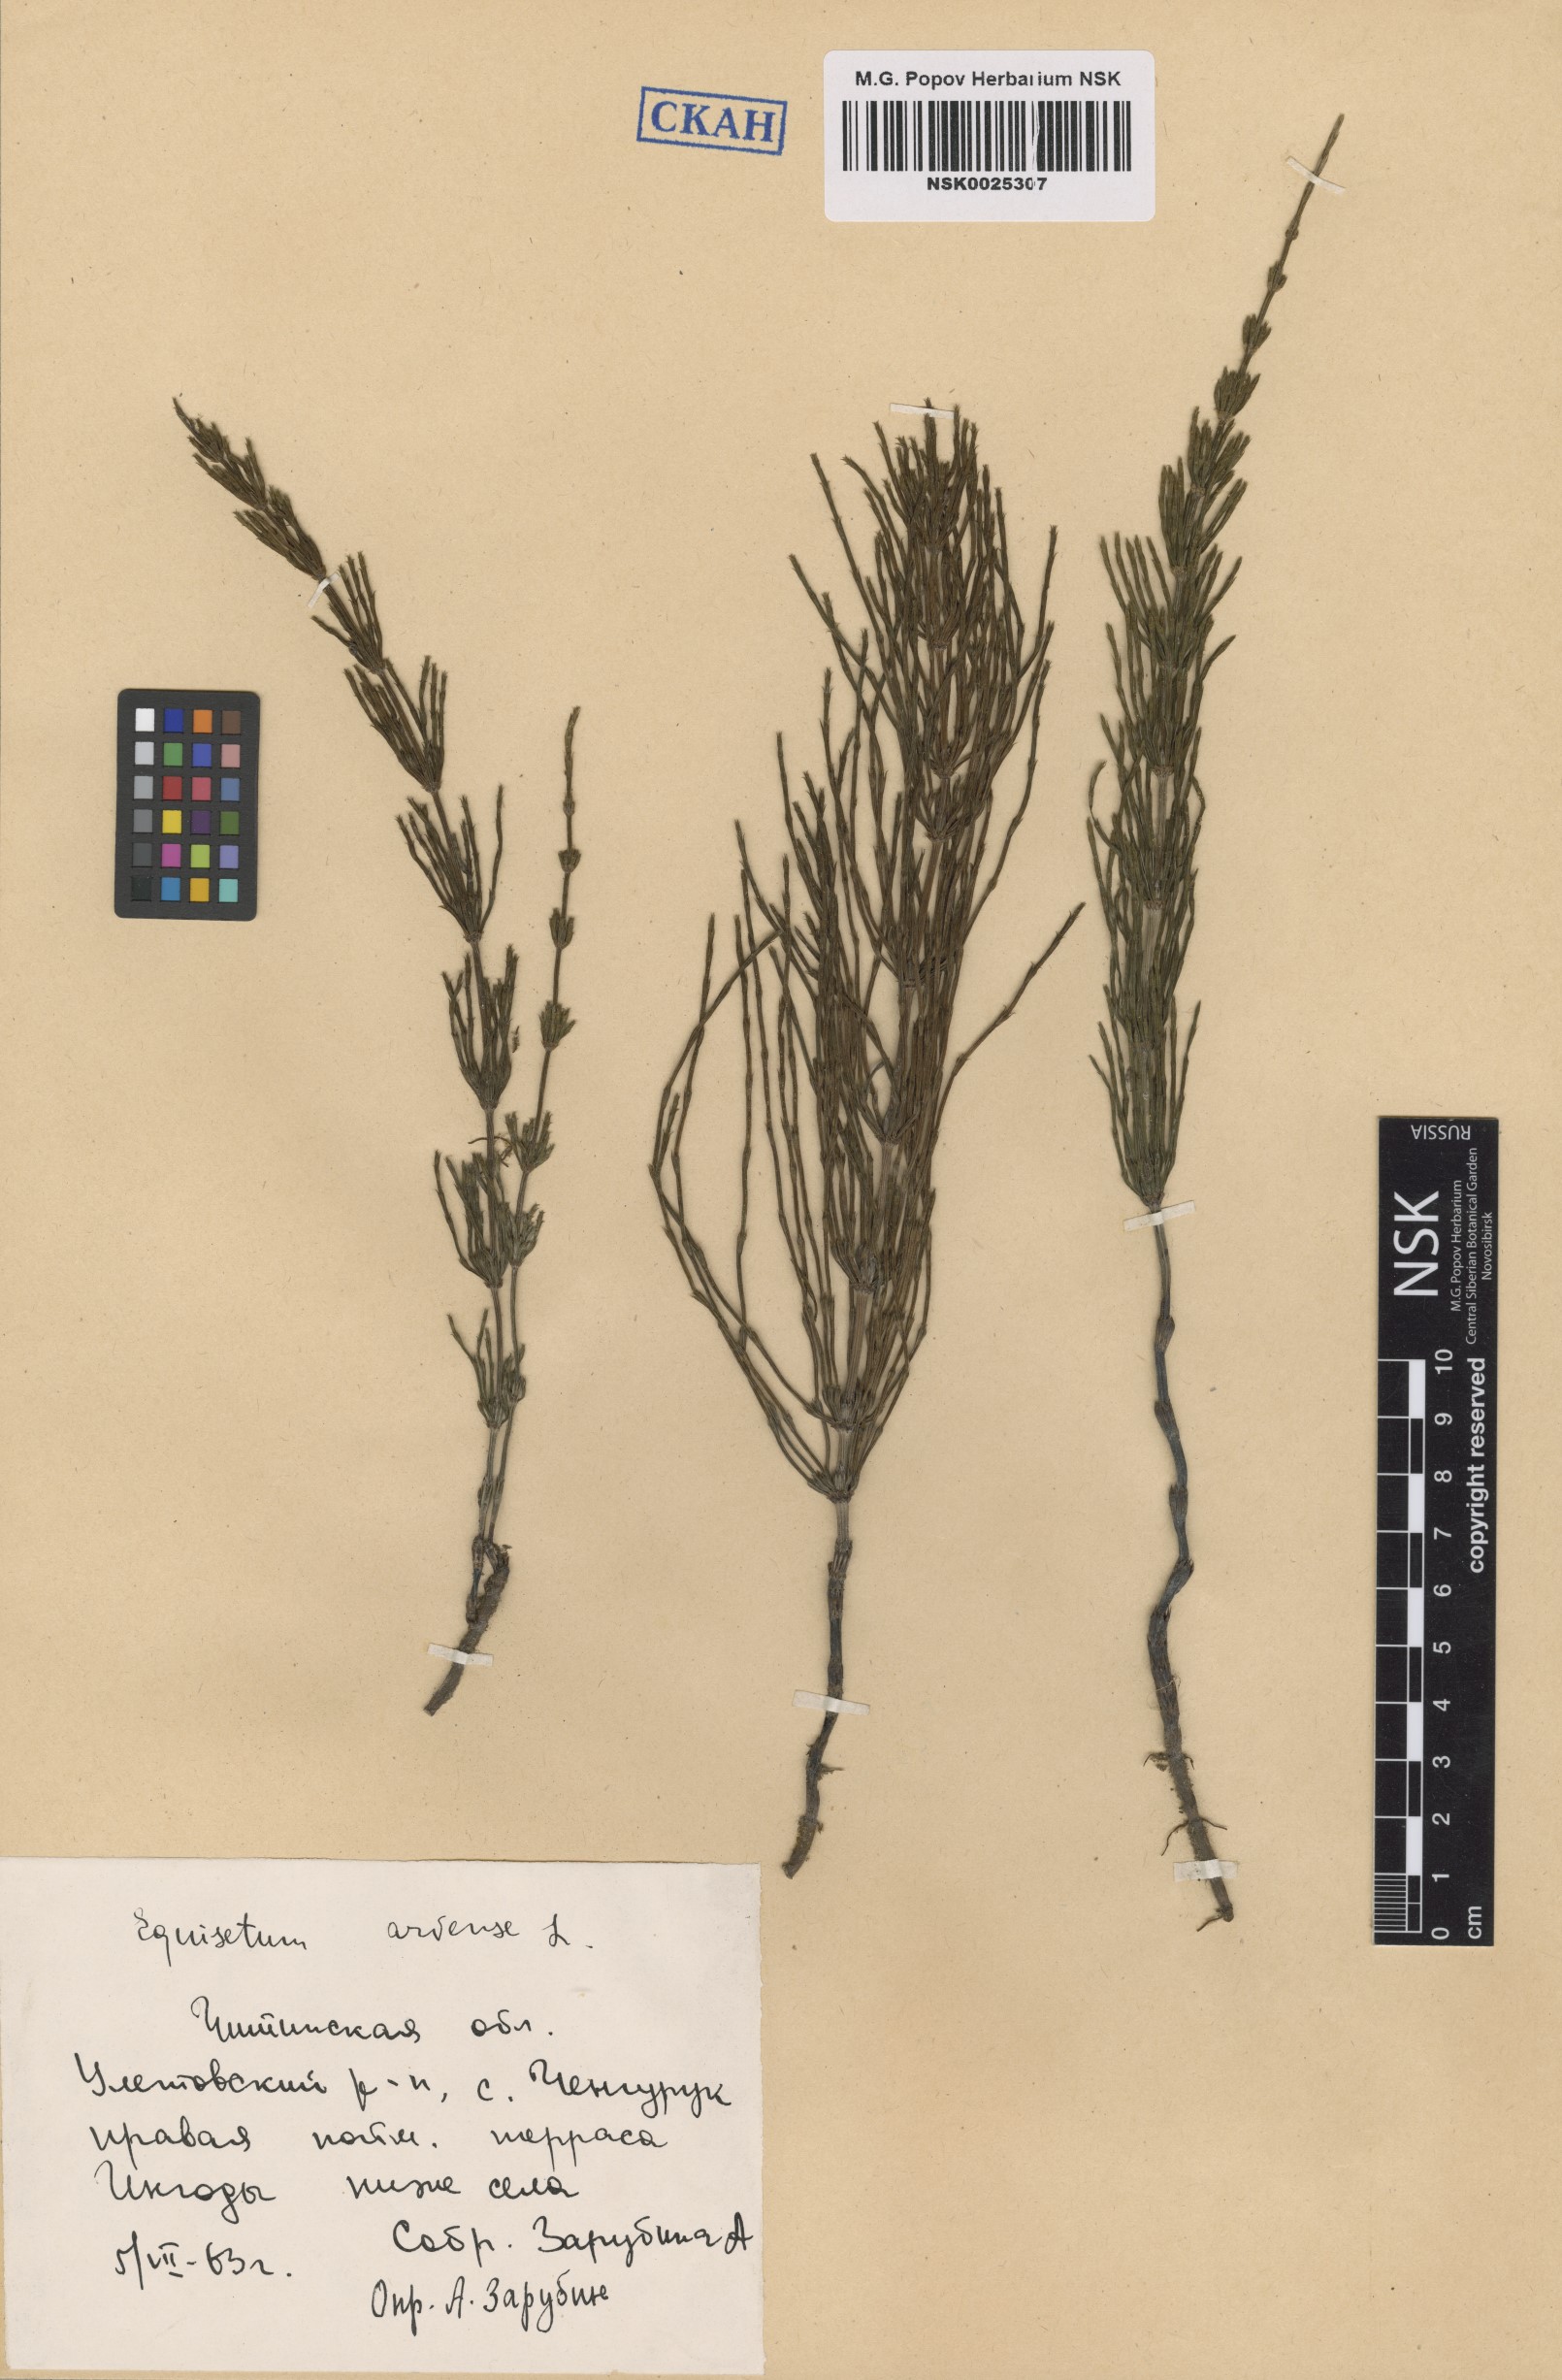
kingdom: Plantae
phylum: Tracheophyta
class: Polypodiopsida
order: Equisetales
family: Equisetaceae
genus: Equisetum
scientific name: Equisetum arvense
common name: Field horsetail
